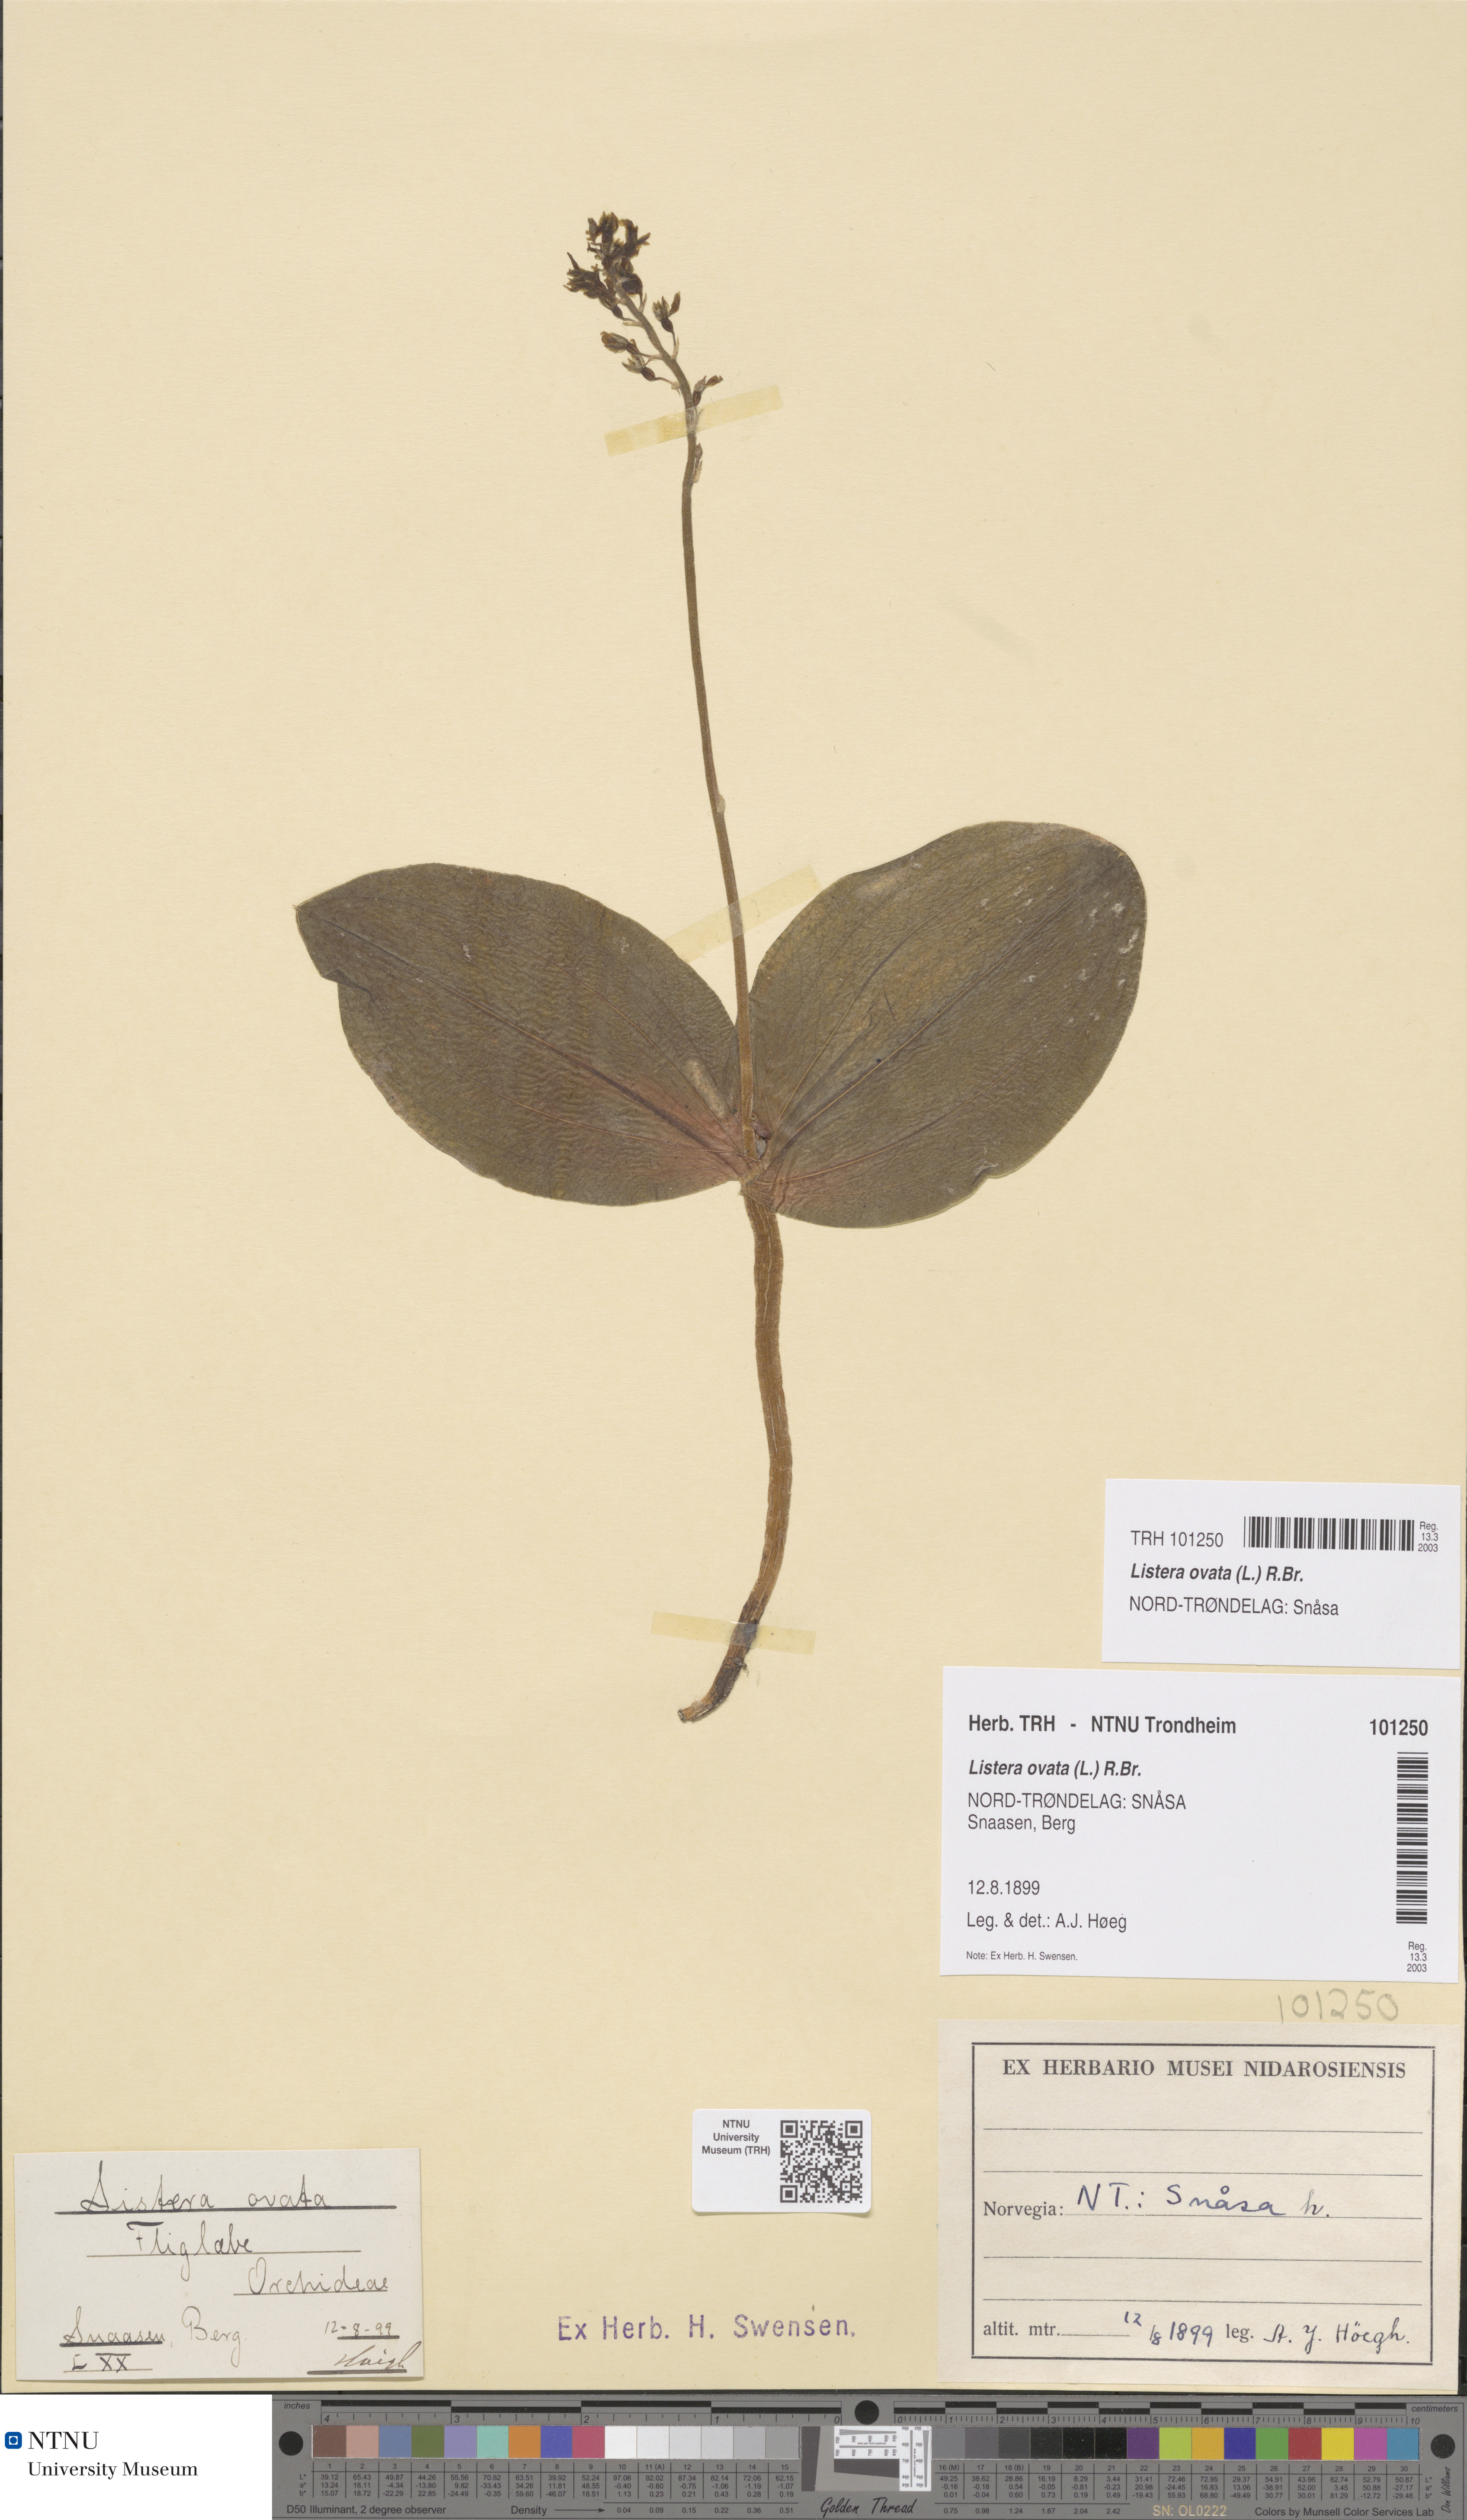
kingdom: Plantae
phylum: Tracheophyta
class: Liliopsida
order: Asparagales
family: Orchidaceae
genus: Neottia
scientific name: Neottia ovata
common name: Common twayblade
